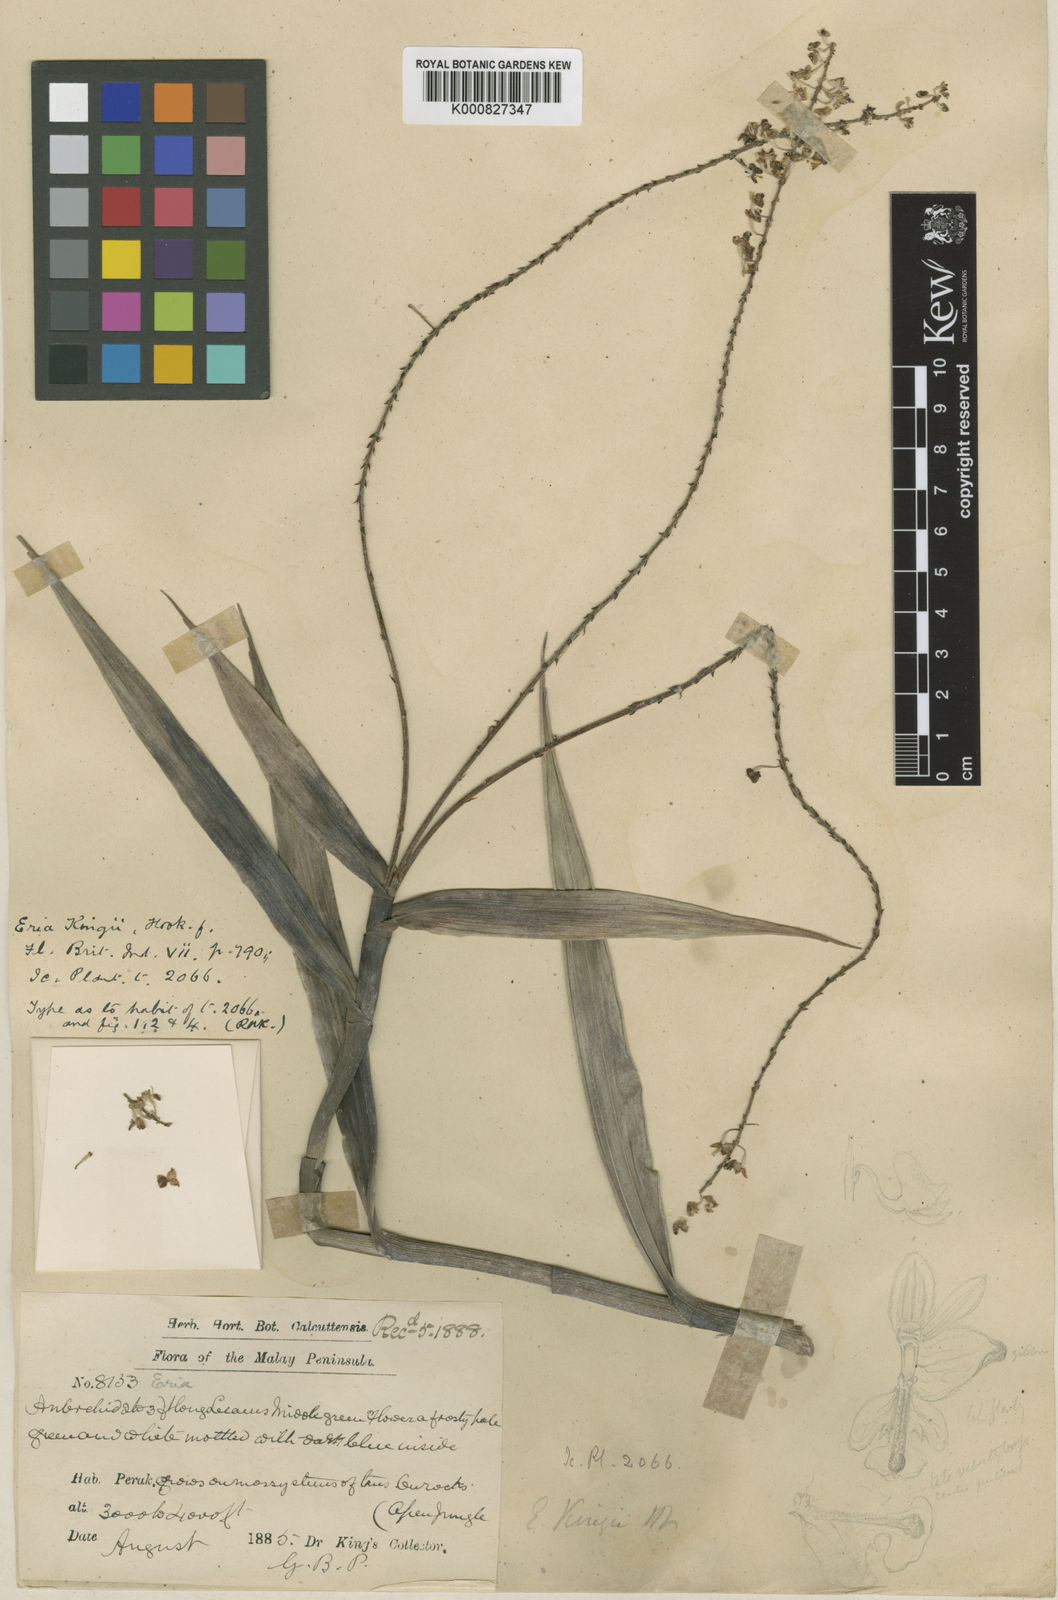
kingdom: Plantae
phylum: Tracheophyta
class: Liliopsida
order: Asparagales
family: Orchidaceae
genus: Mycaranthes
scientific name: Mycaranthes oblitterata
